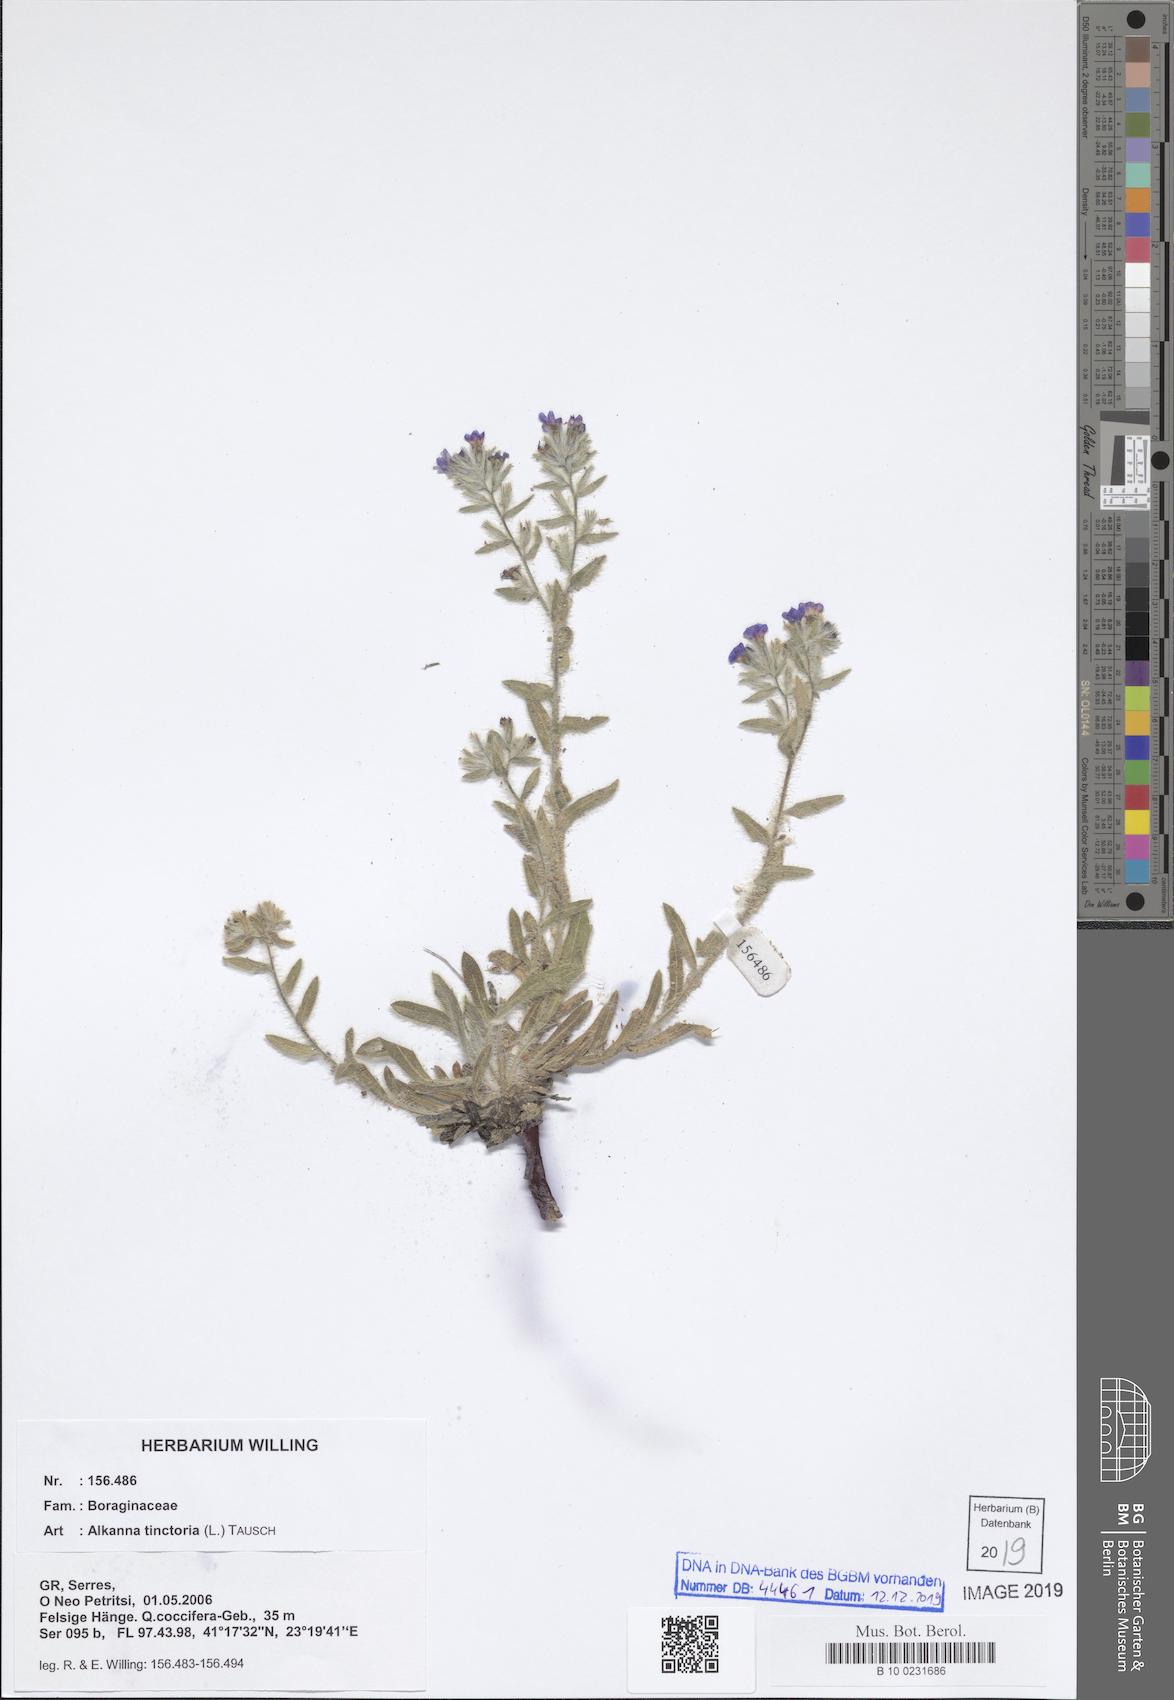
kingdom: Plantae
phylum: Tracheophyta
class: Magnoliopsida
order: Boraginales
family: Boraginaceae
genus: Alkanna
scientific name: Alkanna tinctoria
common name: Dyer's-alkanet
